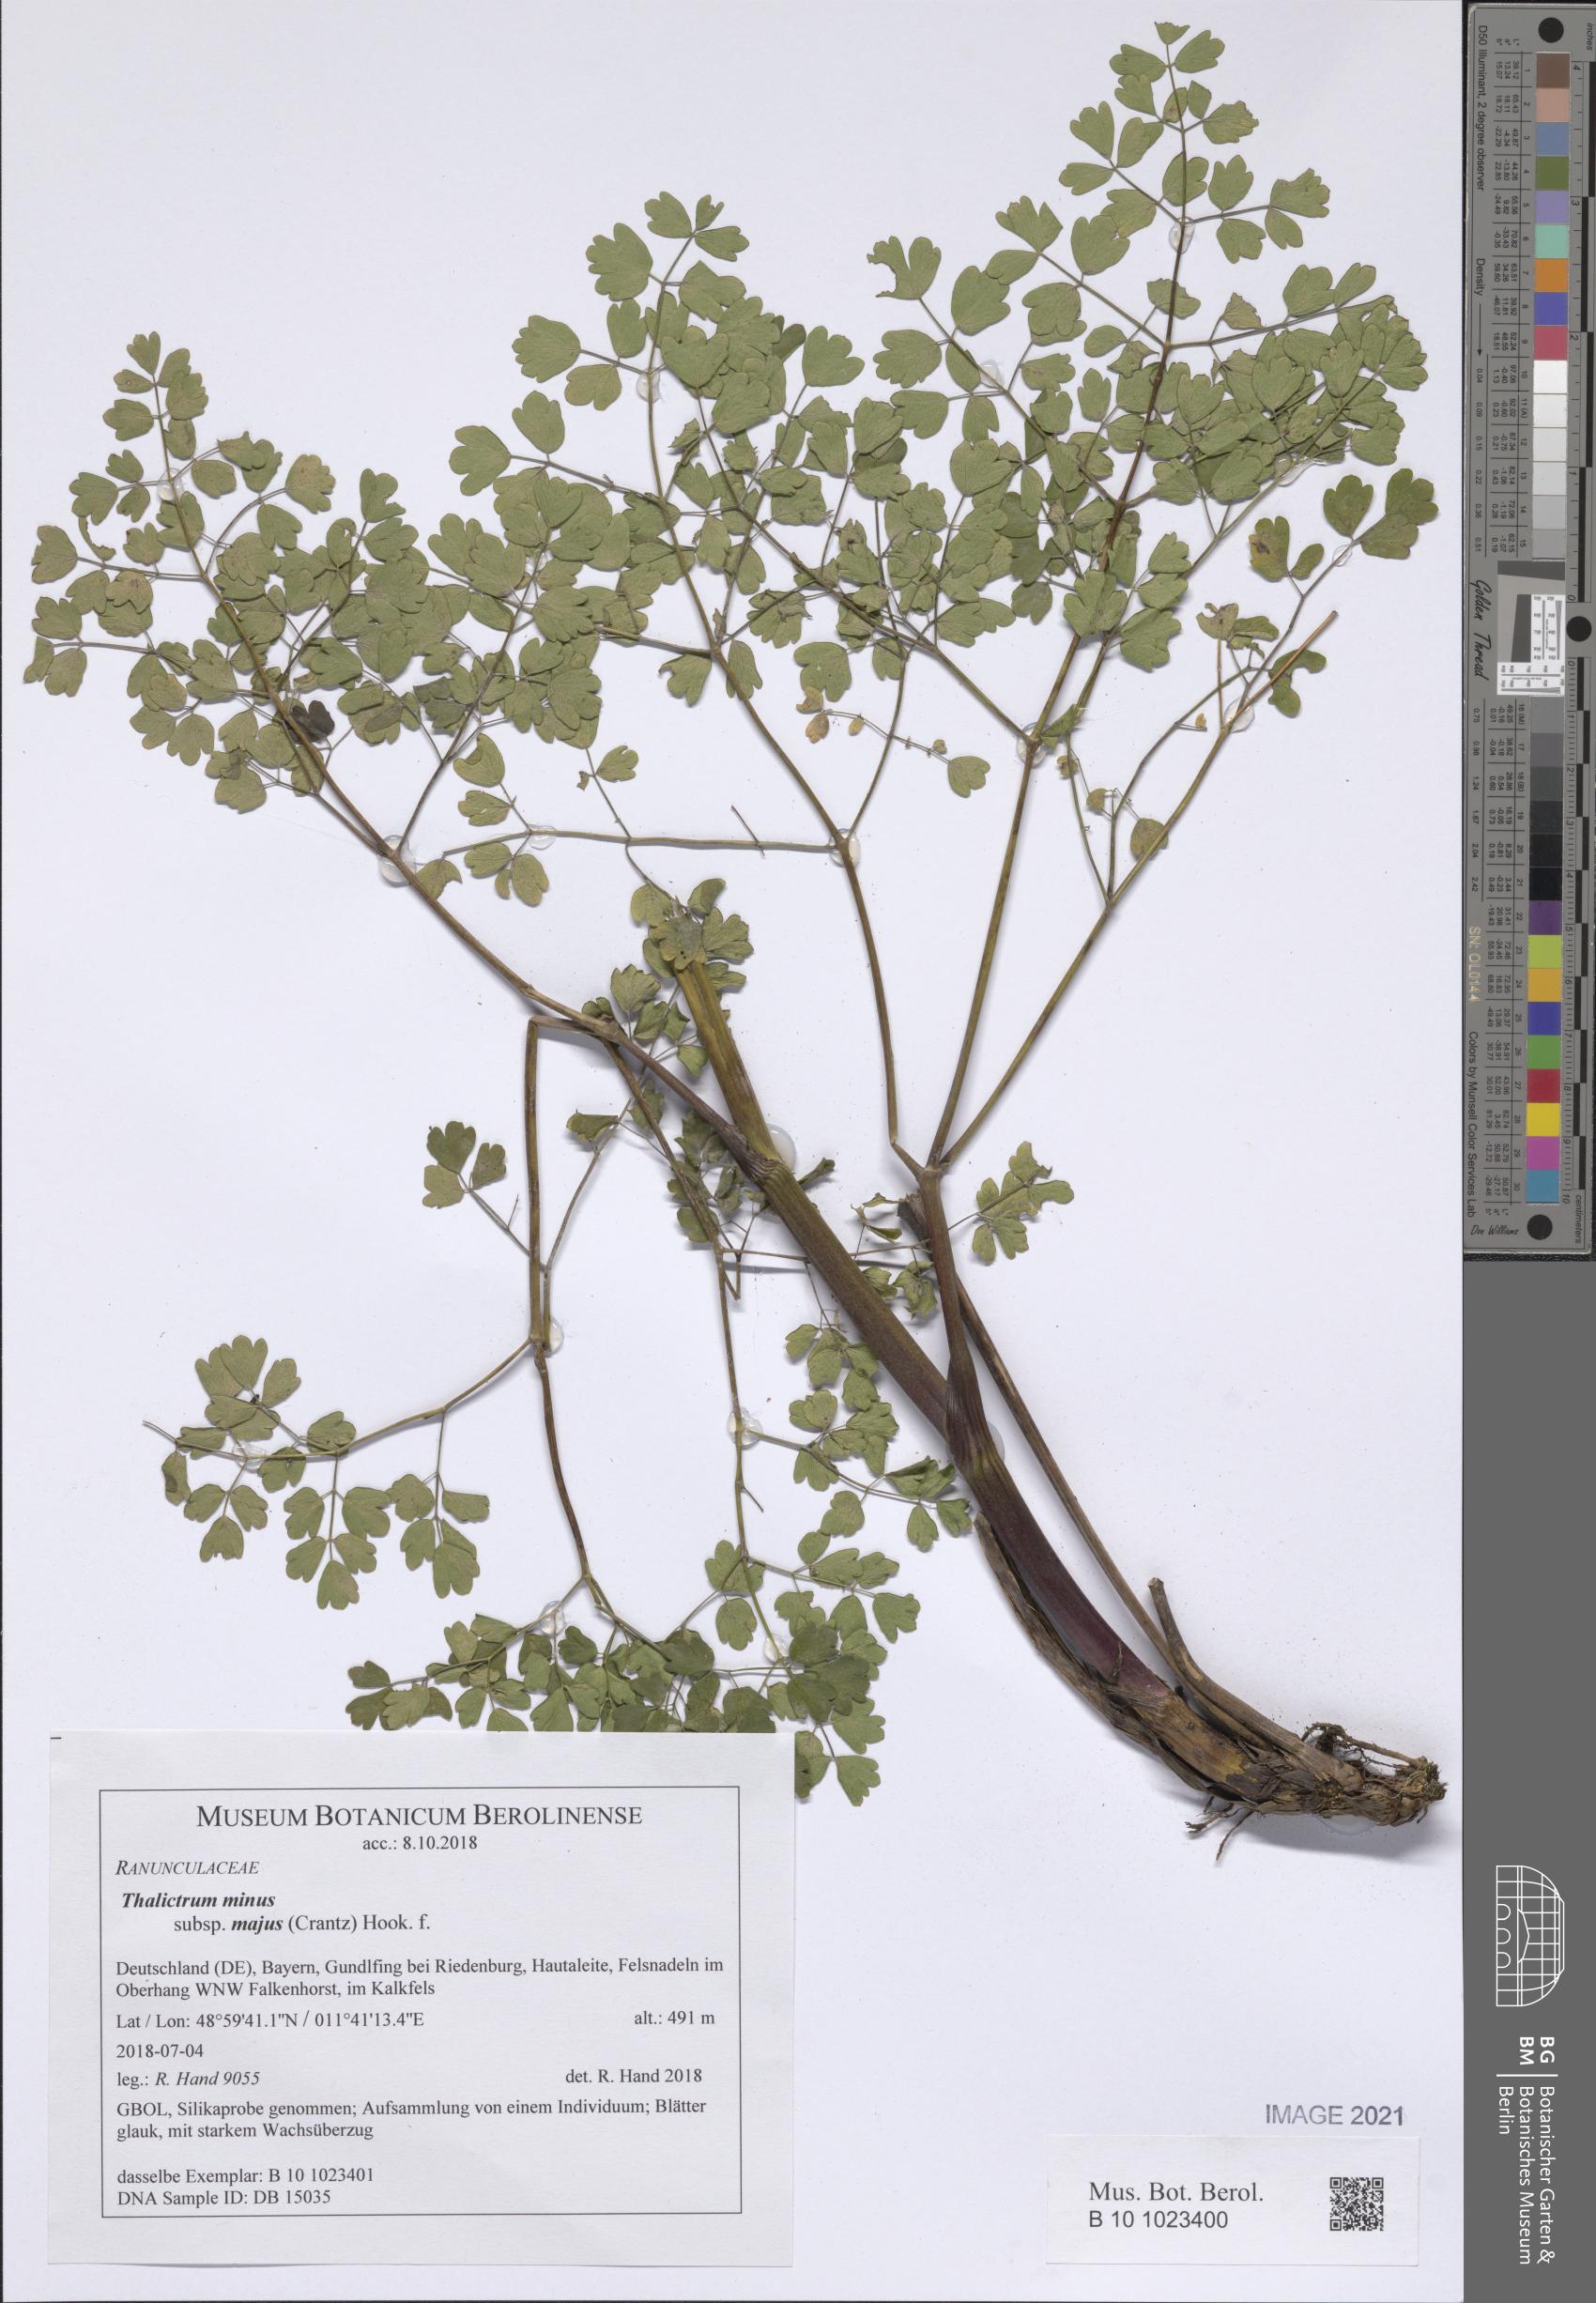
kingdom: Plantae
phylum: Tracheophyta
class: Magnoliopsida
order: Ranunculales
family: Ranunculaceae
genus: Thalictrum
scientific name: Thalictrum minus
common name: Lesser meadow-rue
